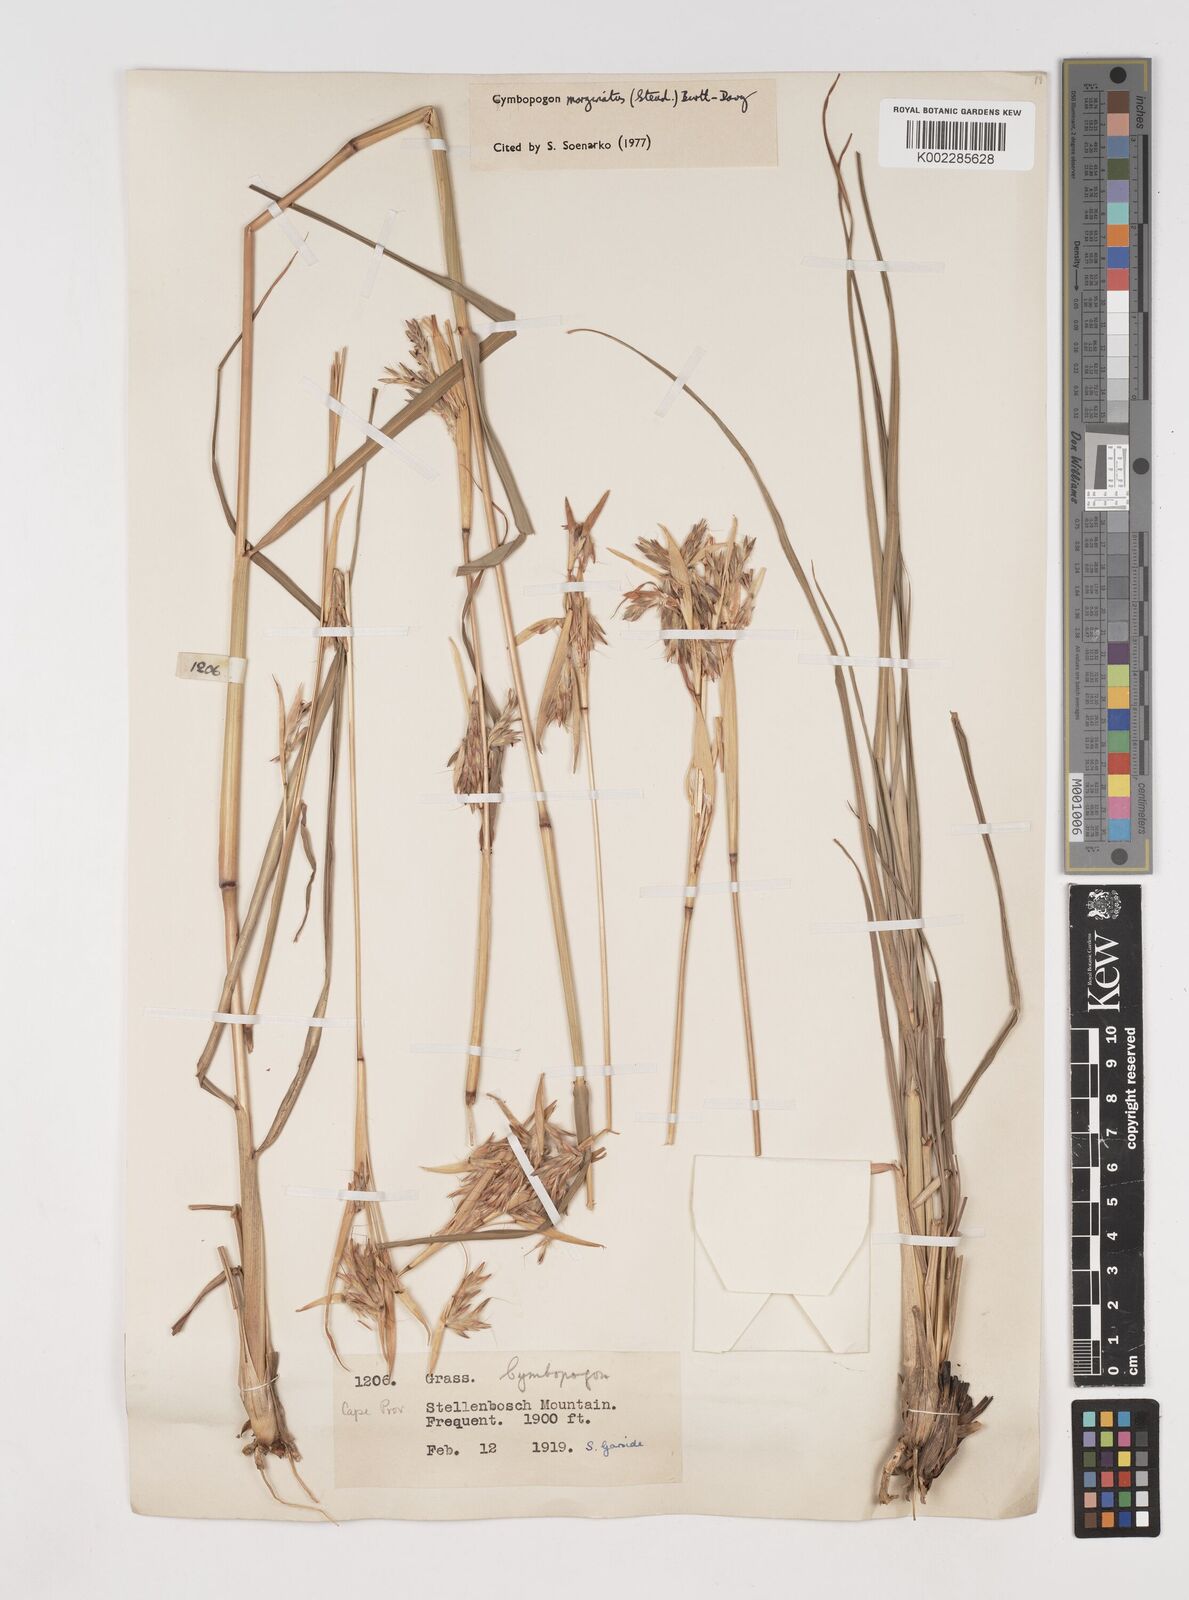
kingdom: Plantae
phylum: Tracheophyta
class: Liliopsida
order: Poales
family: Poaceae
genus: Cymbopogon
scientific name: Cymbopogon marginatus
